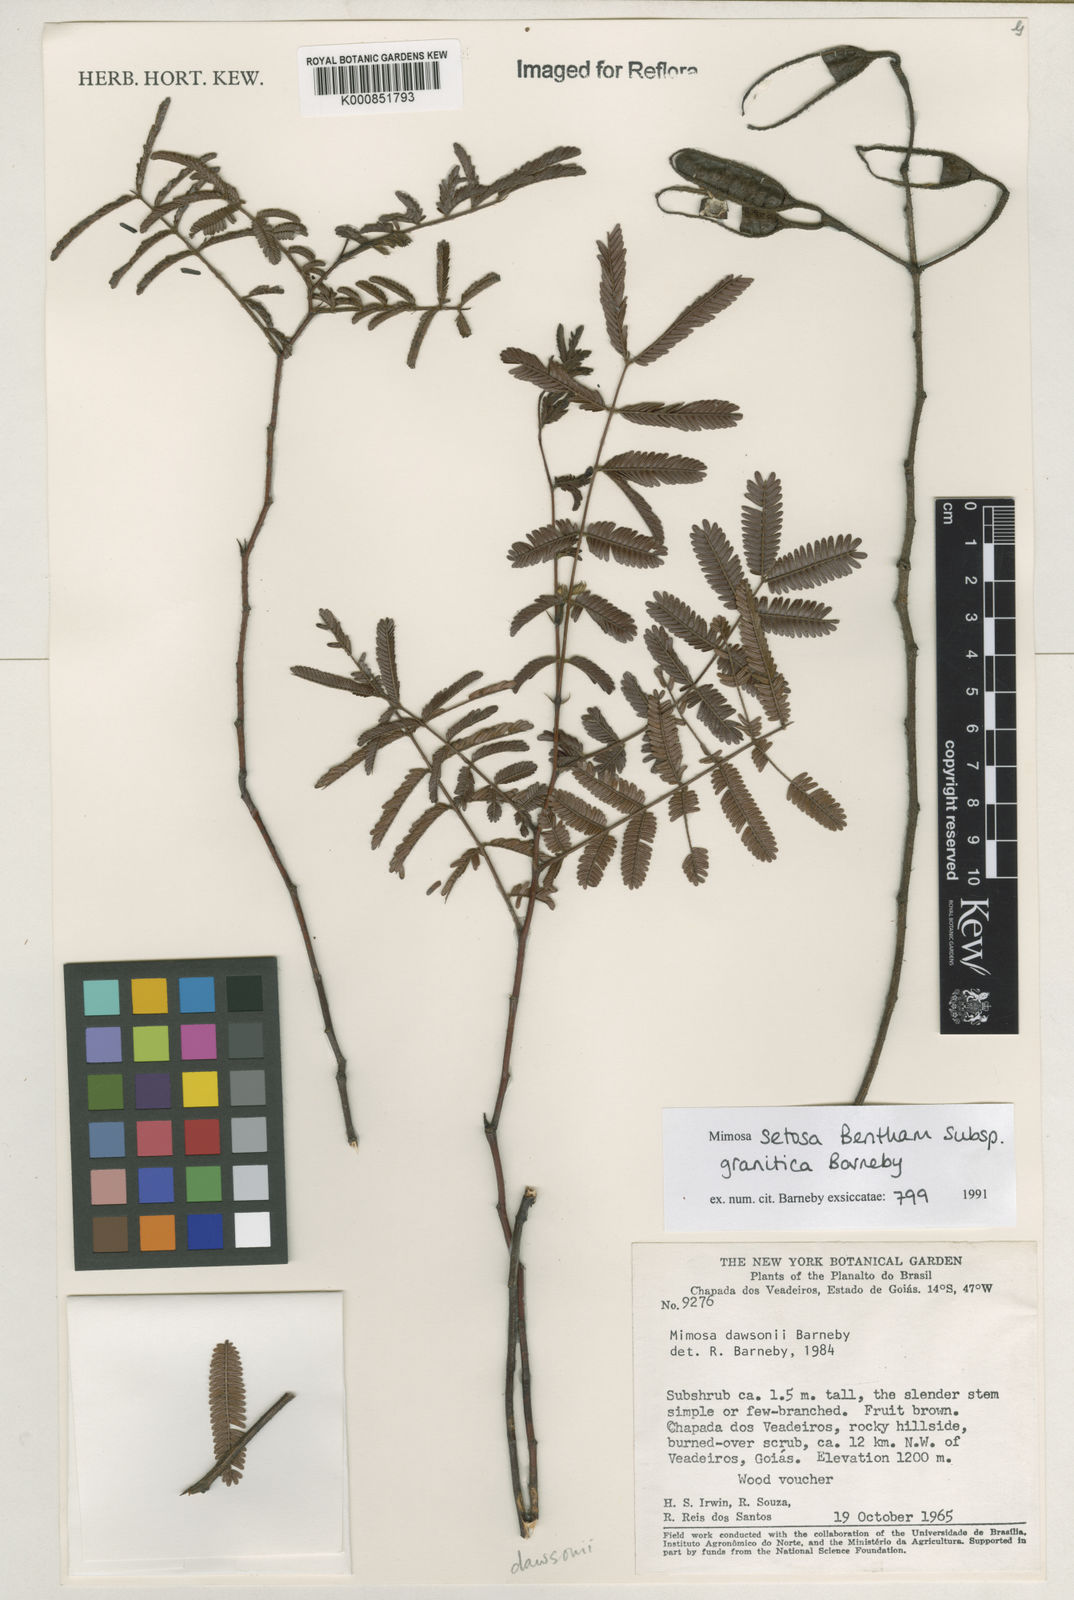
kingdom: Plantae
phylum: Tracheophyta
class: Magnoliopsida
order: Fabales
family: Fabaceae
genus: Mimosa
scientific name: Mimosa granitica
